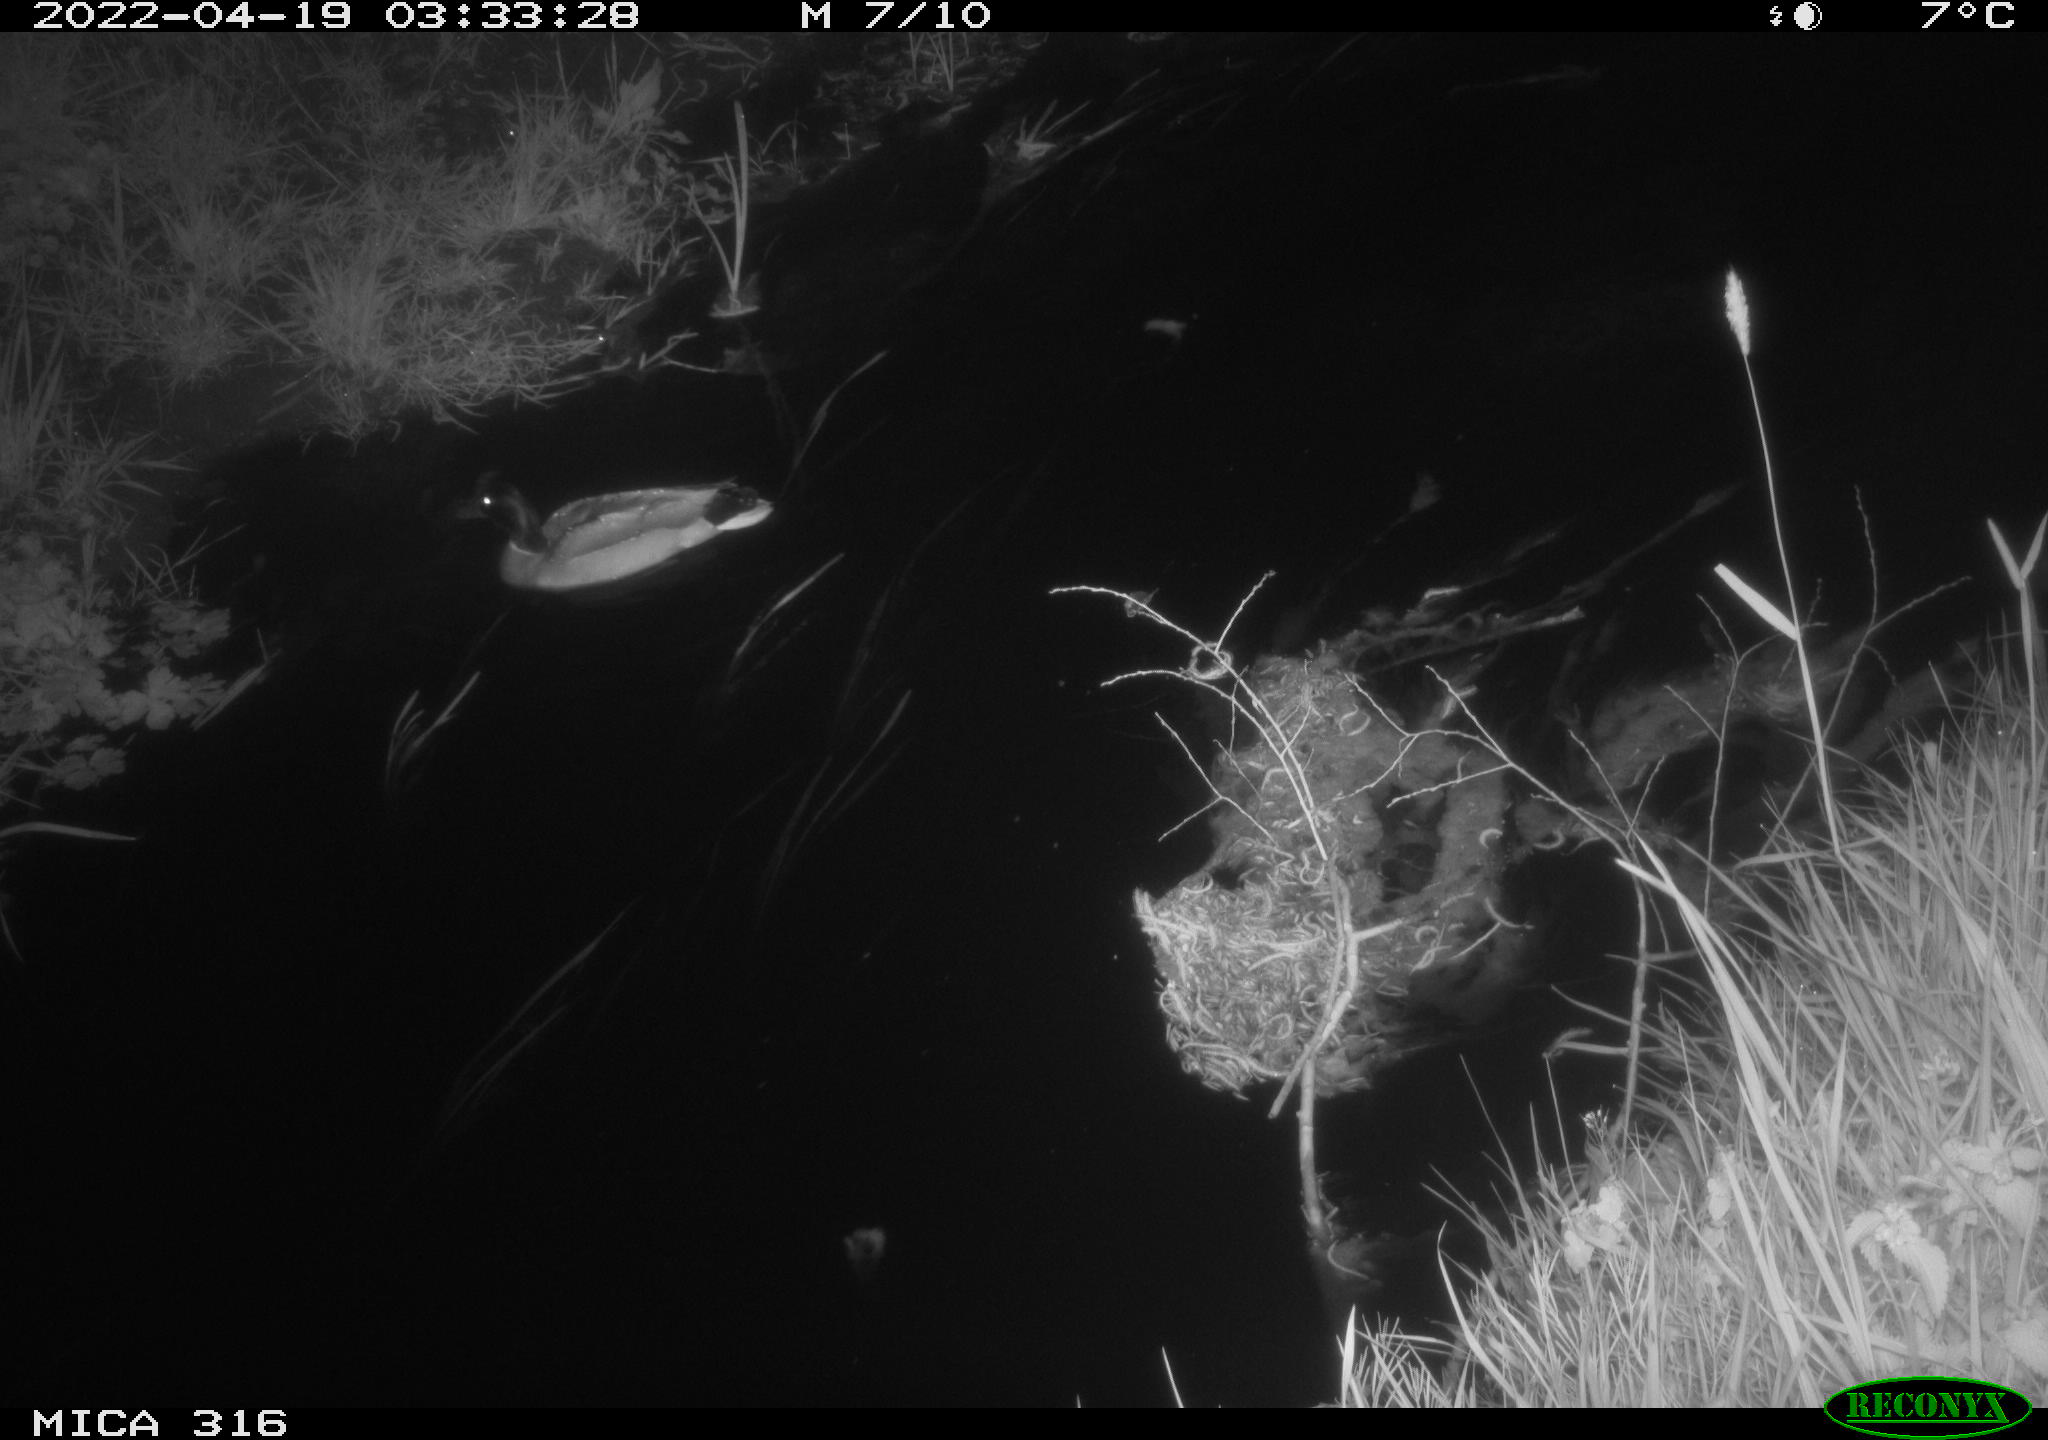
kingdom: Animalia
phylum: Chordata
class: Aves
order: Anseriformes
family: Anatidae
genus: Anas
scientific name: Anas platyrhynchos
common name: Mallard
